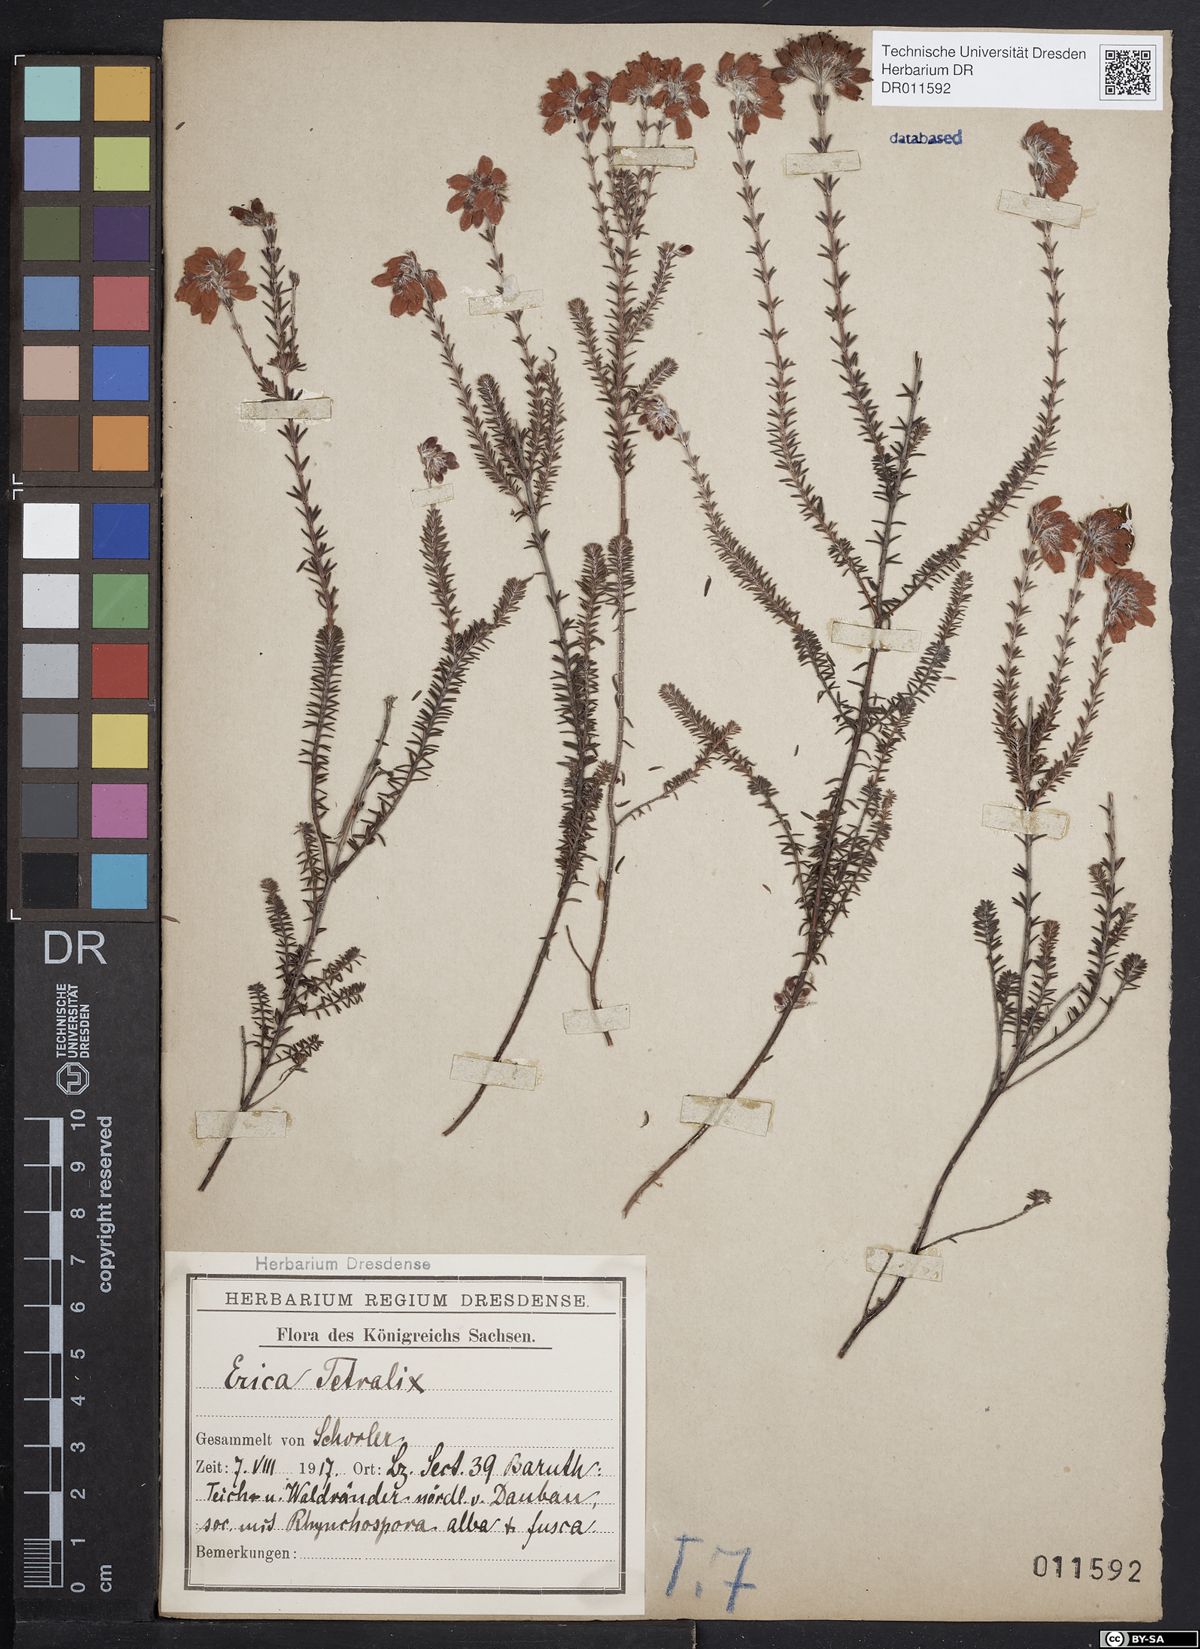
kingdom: Plantae
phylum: Tracheophyta
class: Magnoliopsida
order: Ericales
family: Ericaceae
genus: Erica
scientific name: Erica tetralix
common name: Cross-leaved heath
